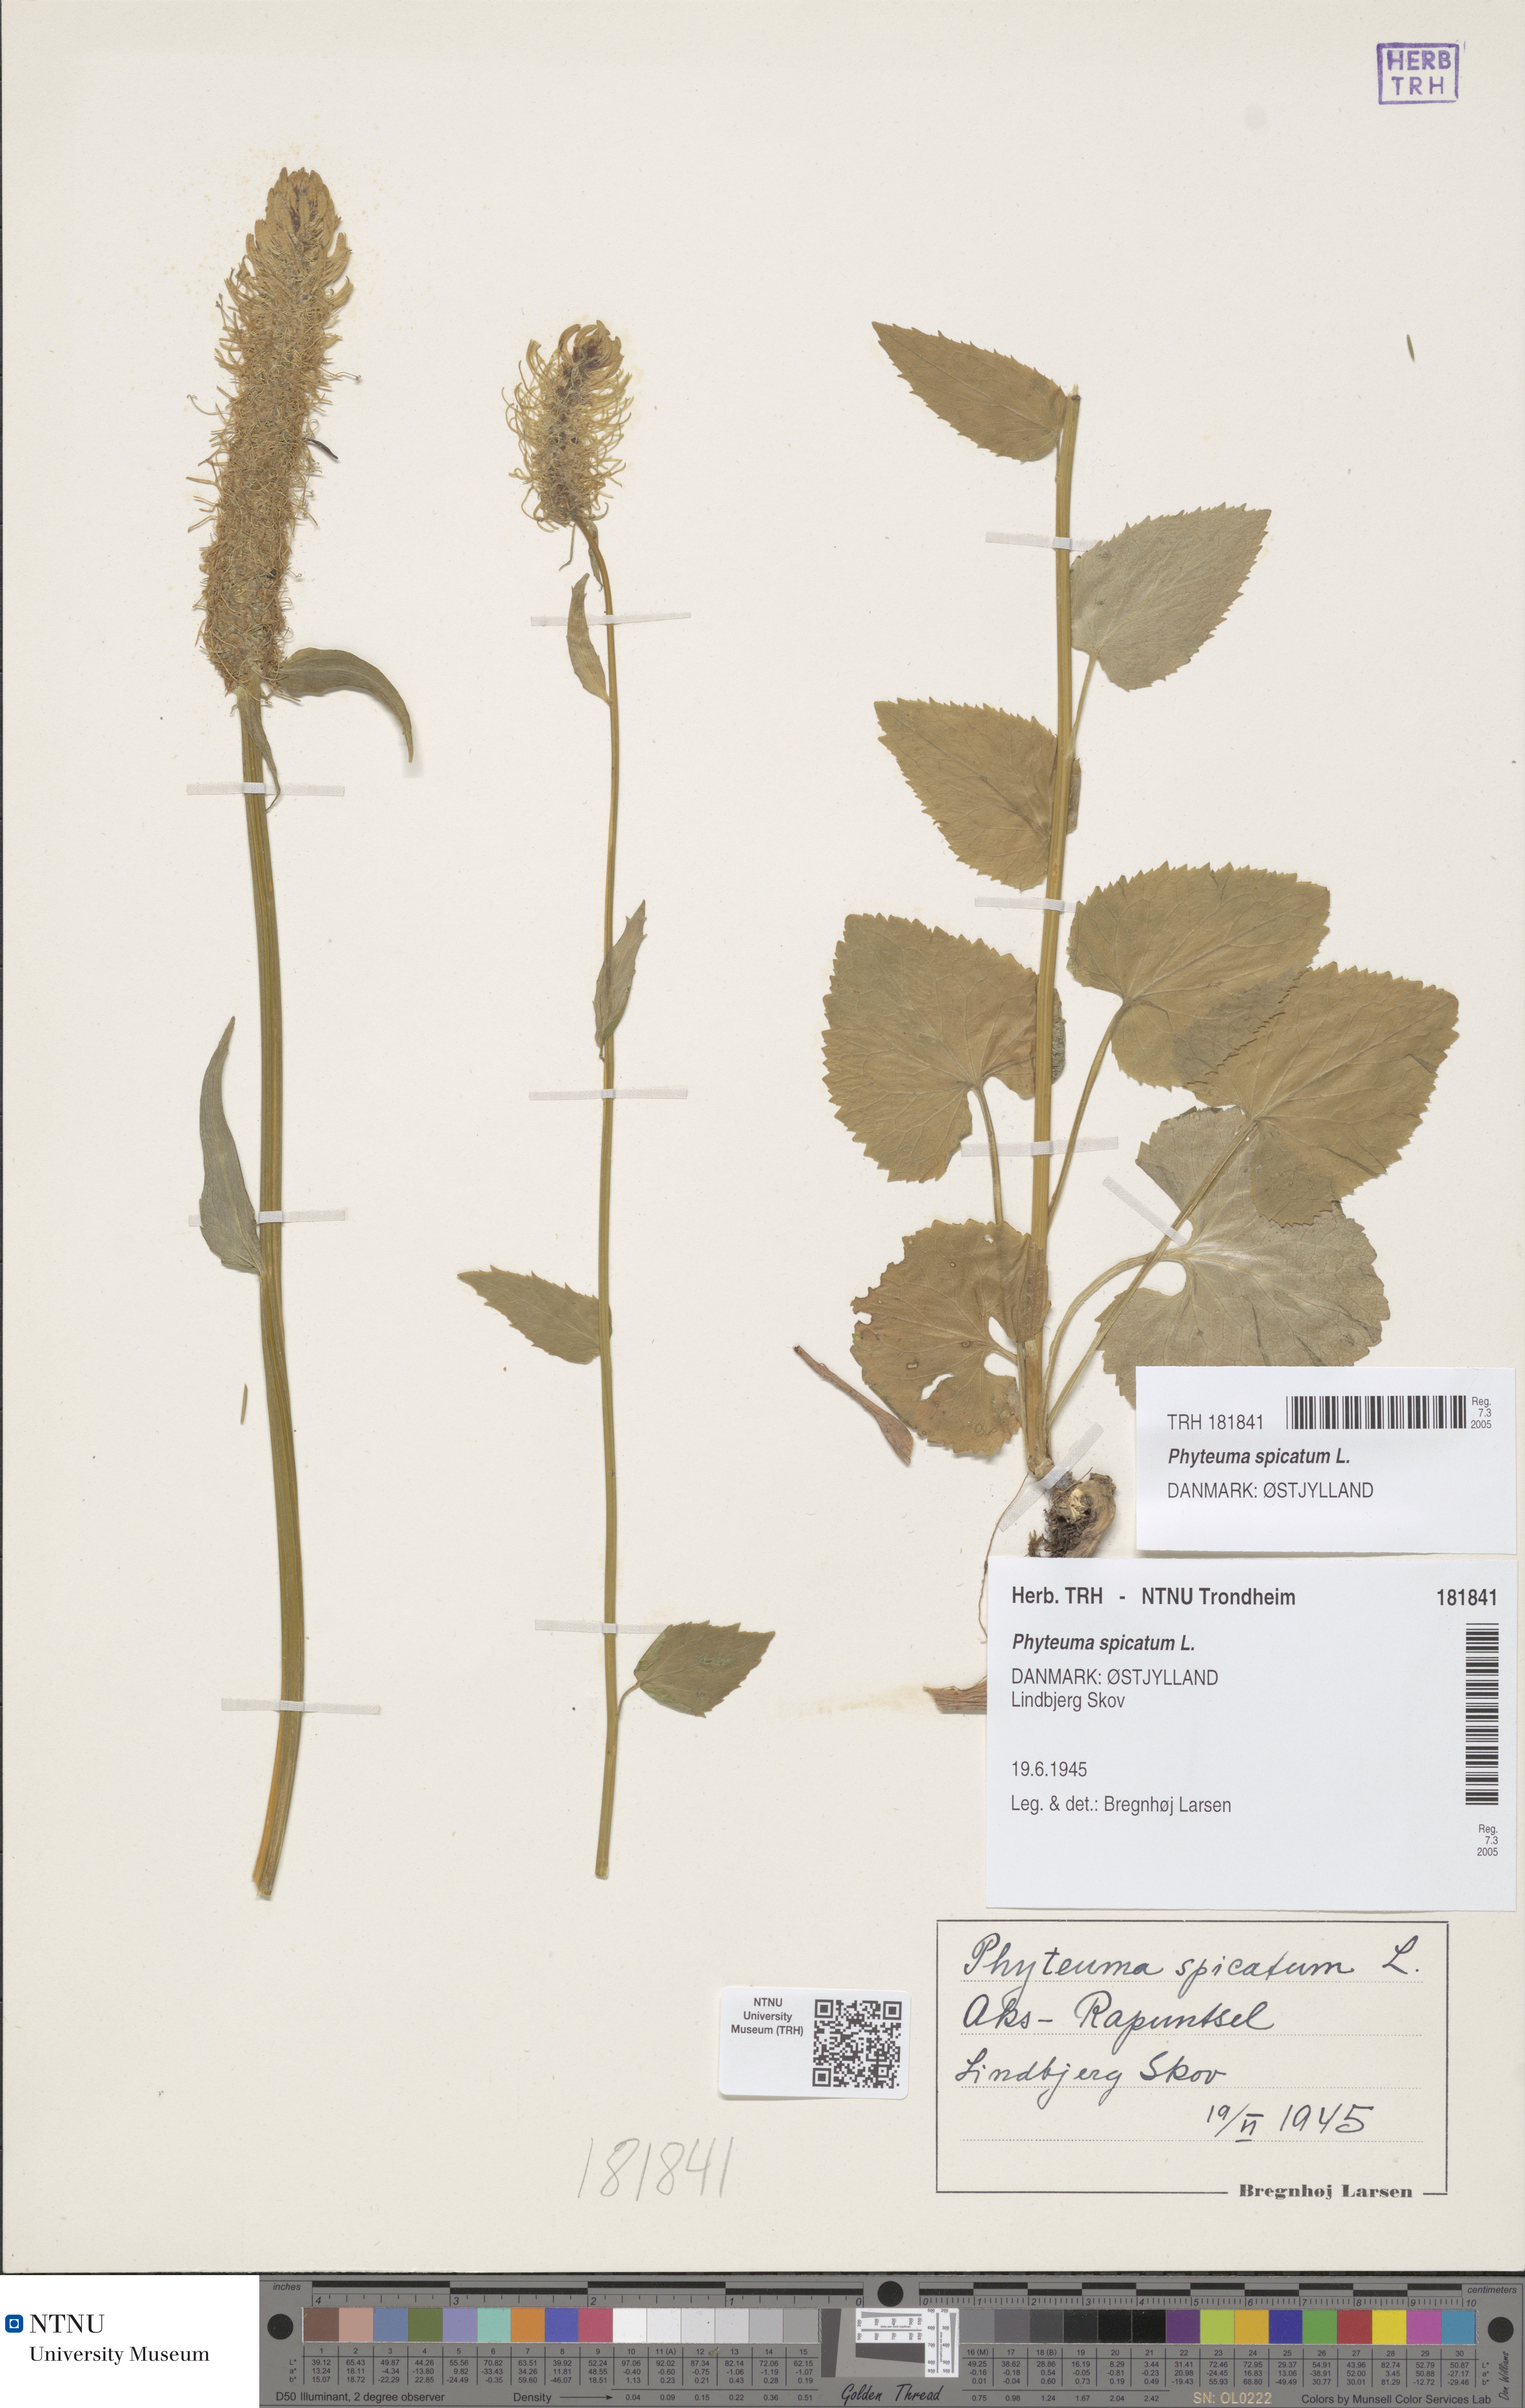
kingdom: Plantae
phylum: Tracheophyta
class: Magnoliopsida
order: Asterales
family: Campanulaceae
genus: Phyteuma
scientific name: Phyteuma spicatum
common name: Spiked rampion
